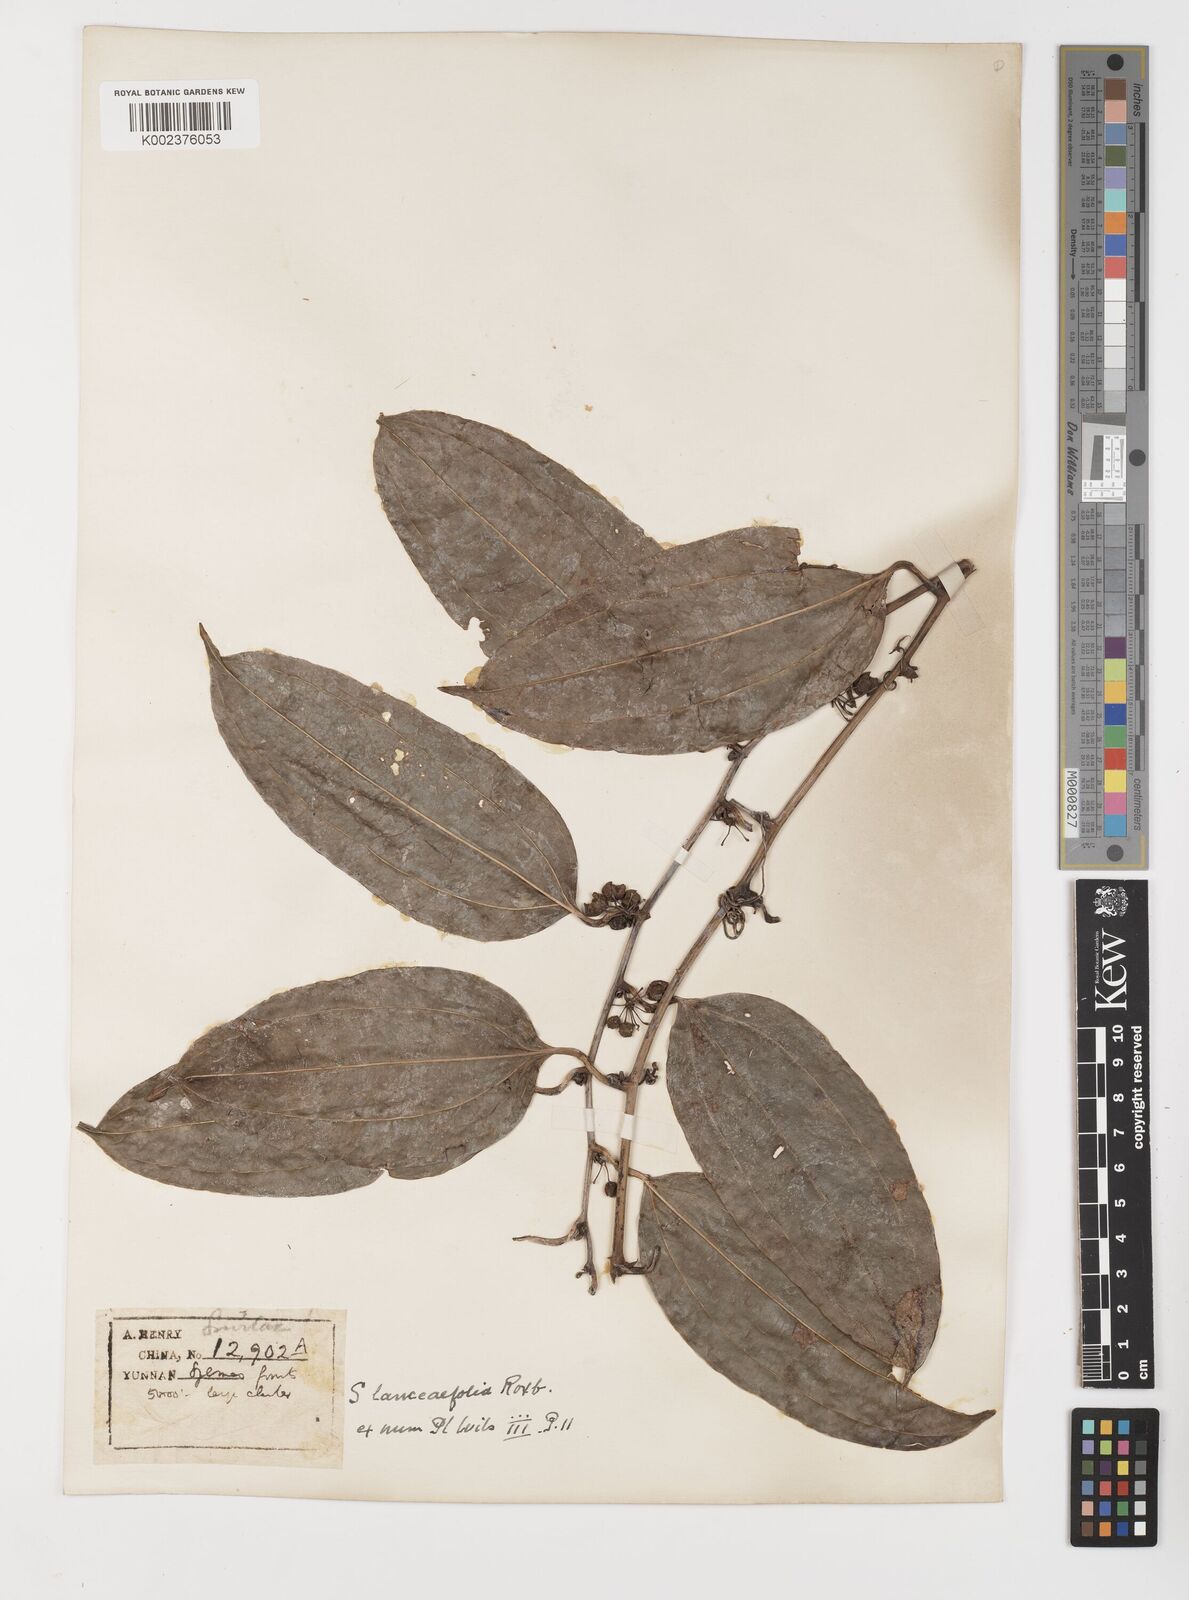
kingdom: Plantae
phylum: Tracheophyta
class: Liliopsida
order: Liliales
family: Smilacaceae
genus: Smilax
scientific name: Smilax lanceifolia
